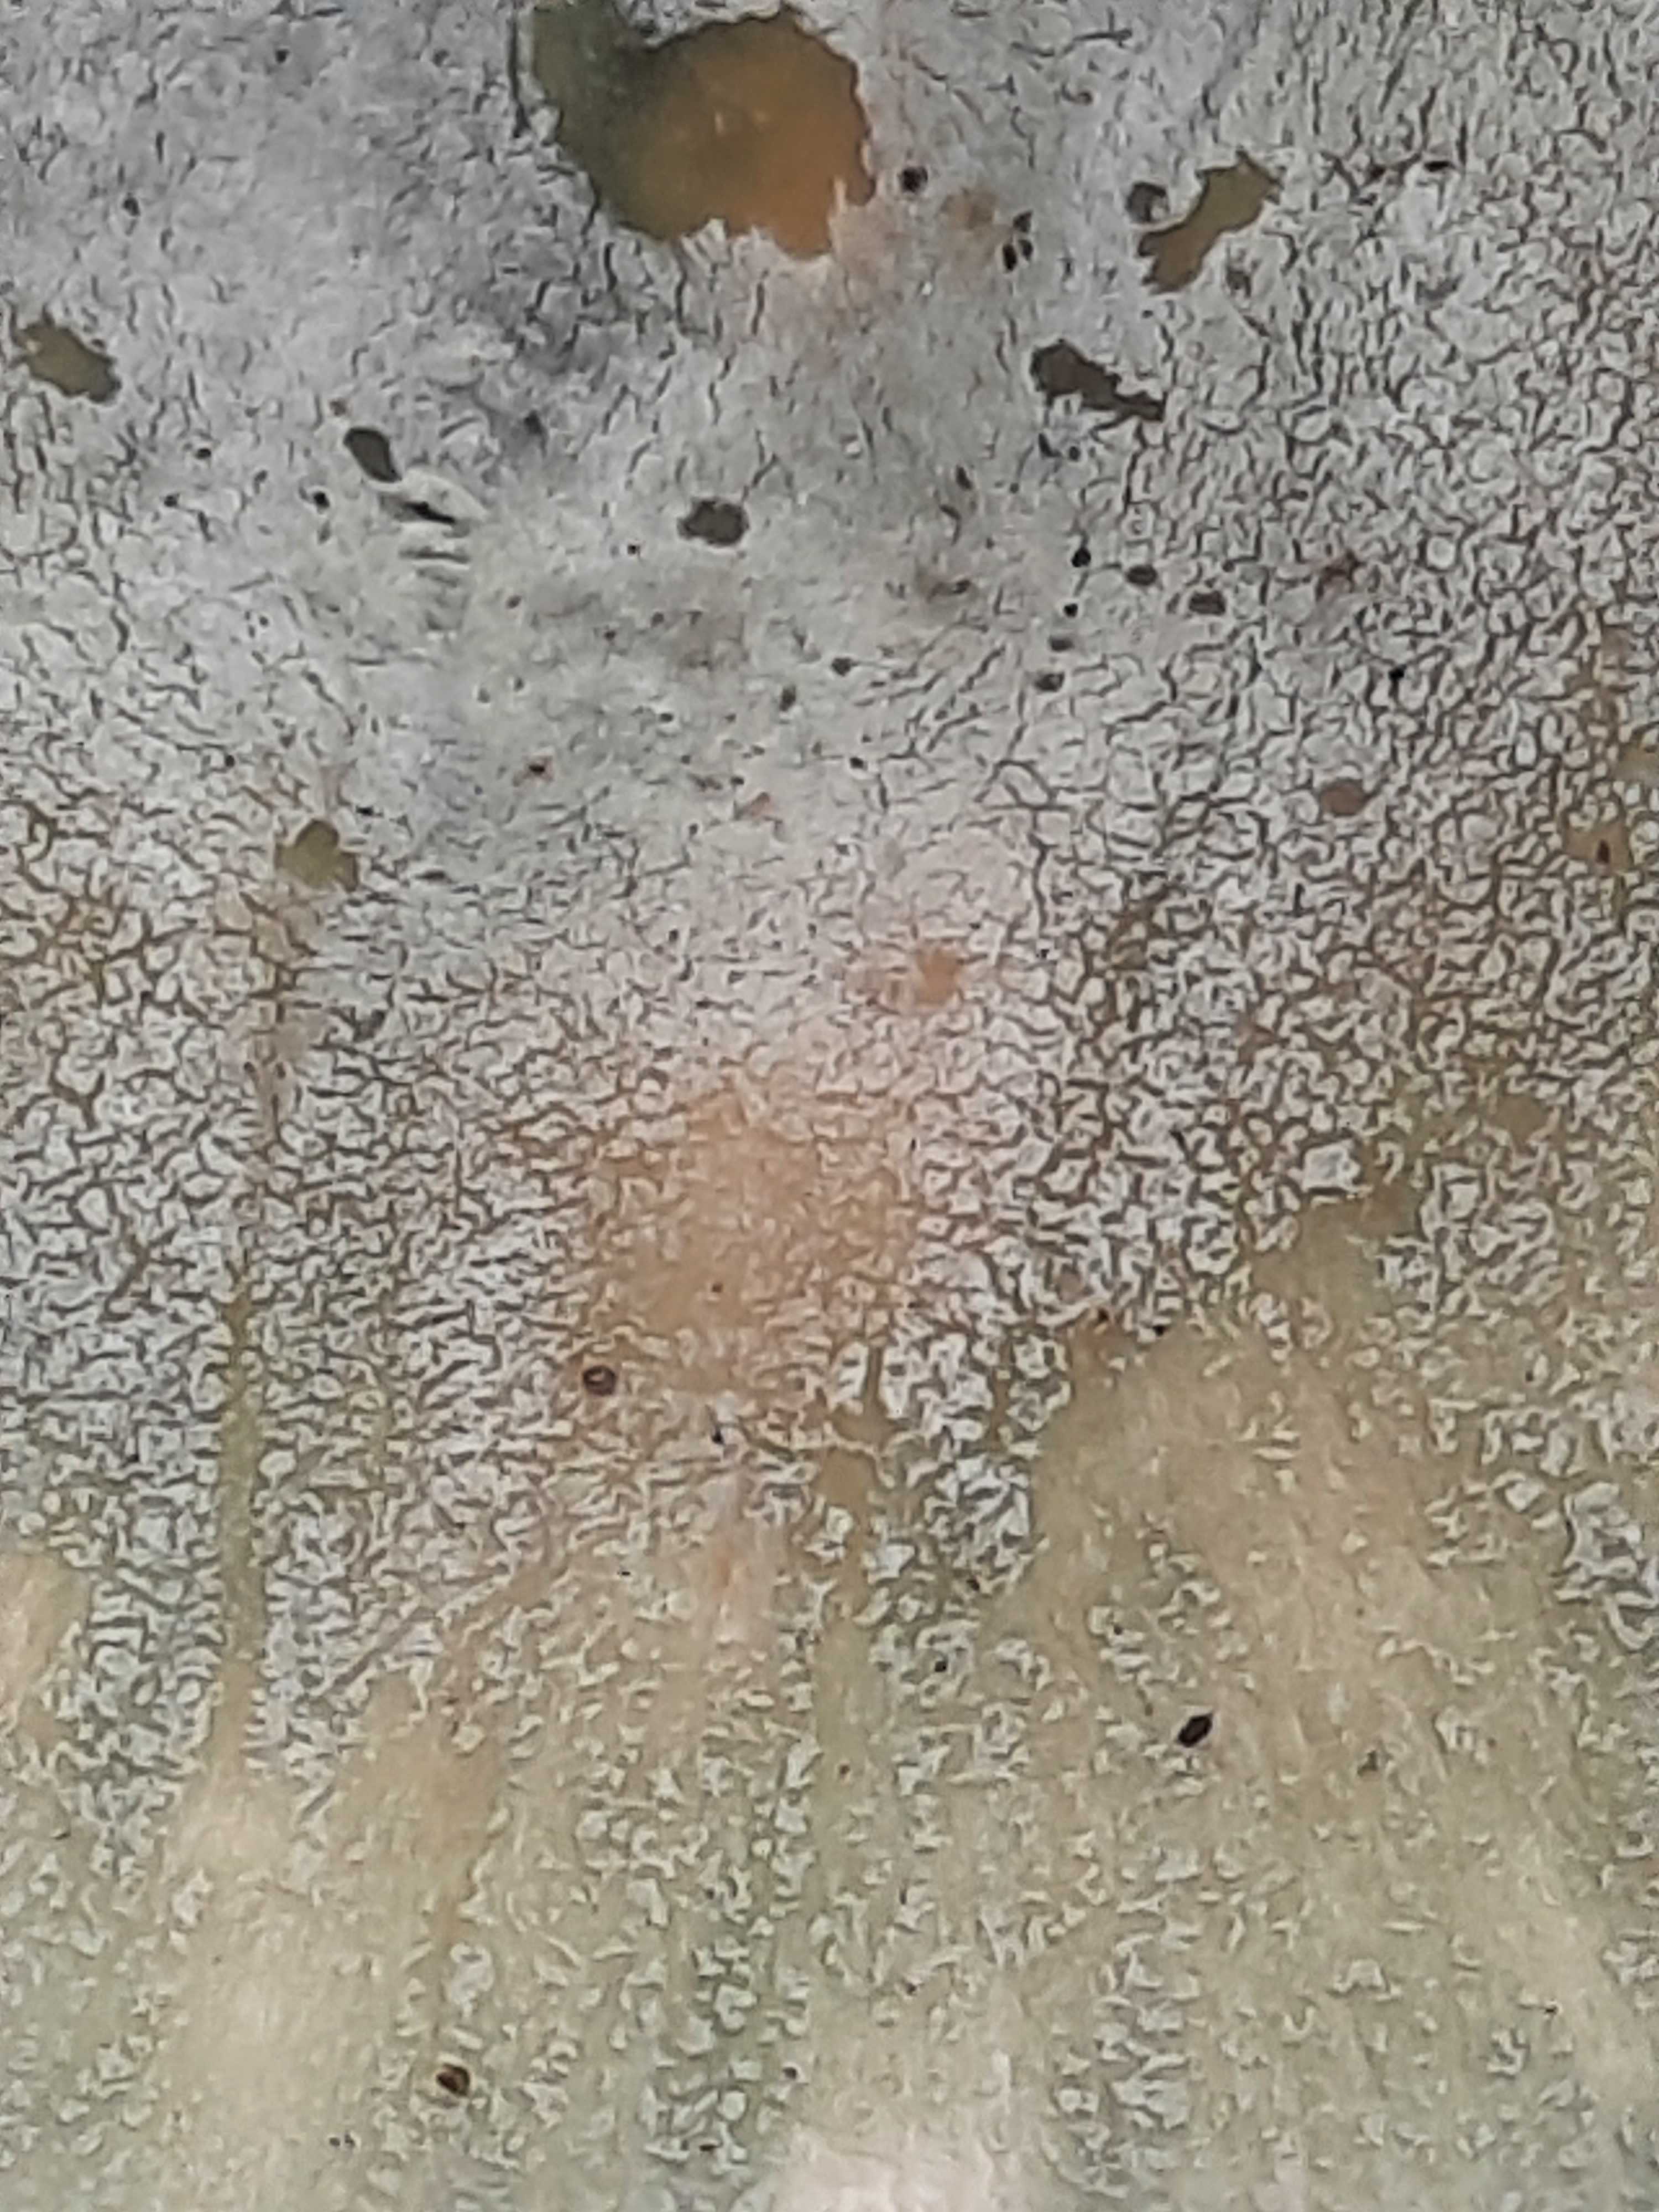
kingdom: Fungi
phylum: Basidiomycota
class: Agaricomycetes
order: Russulales
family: Russulaceae
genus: Russula
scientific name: Russula
